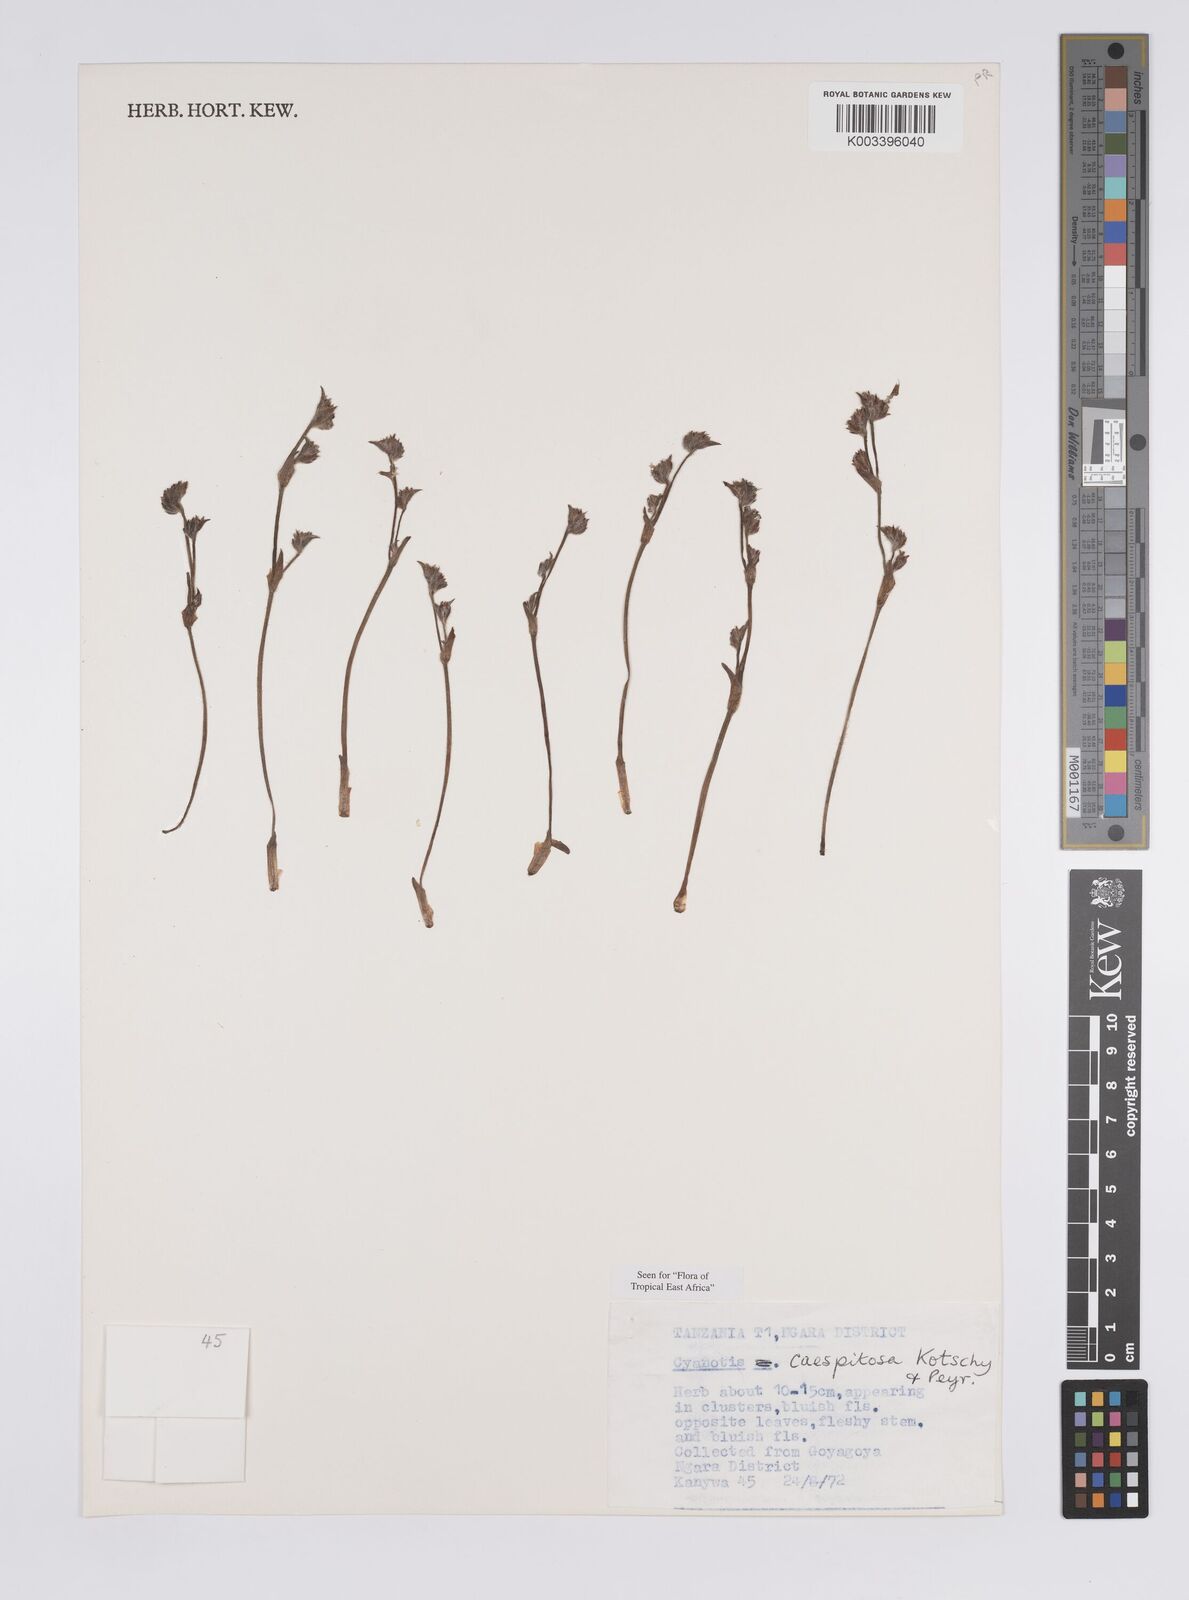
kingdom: Plantae
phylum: Tracheophyta
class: Liliopsida
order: Commelinales
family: Commelinaceae
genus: Cyanotis
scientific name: Cyanotis caespitosa
